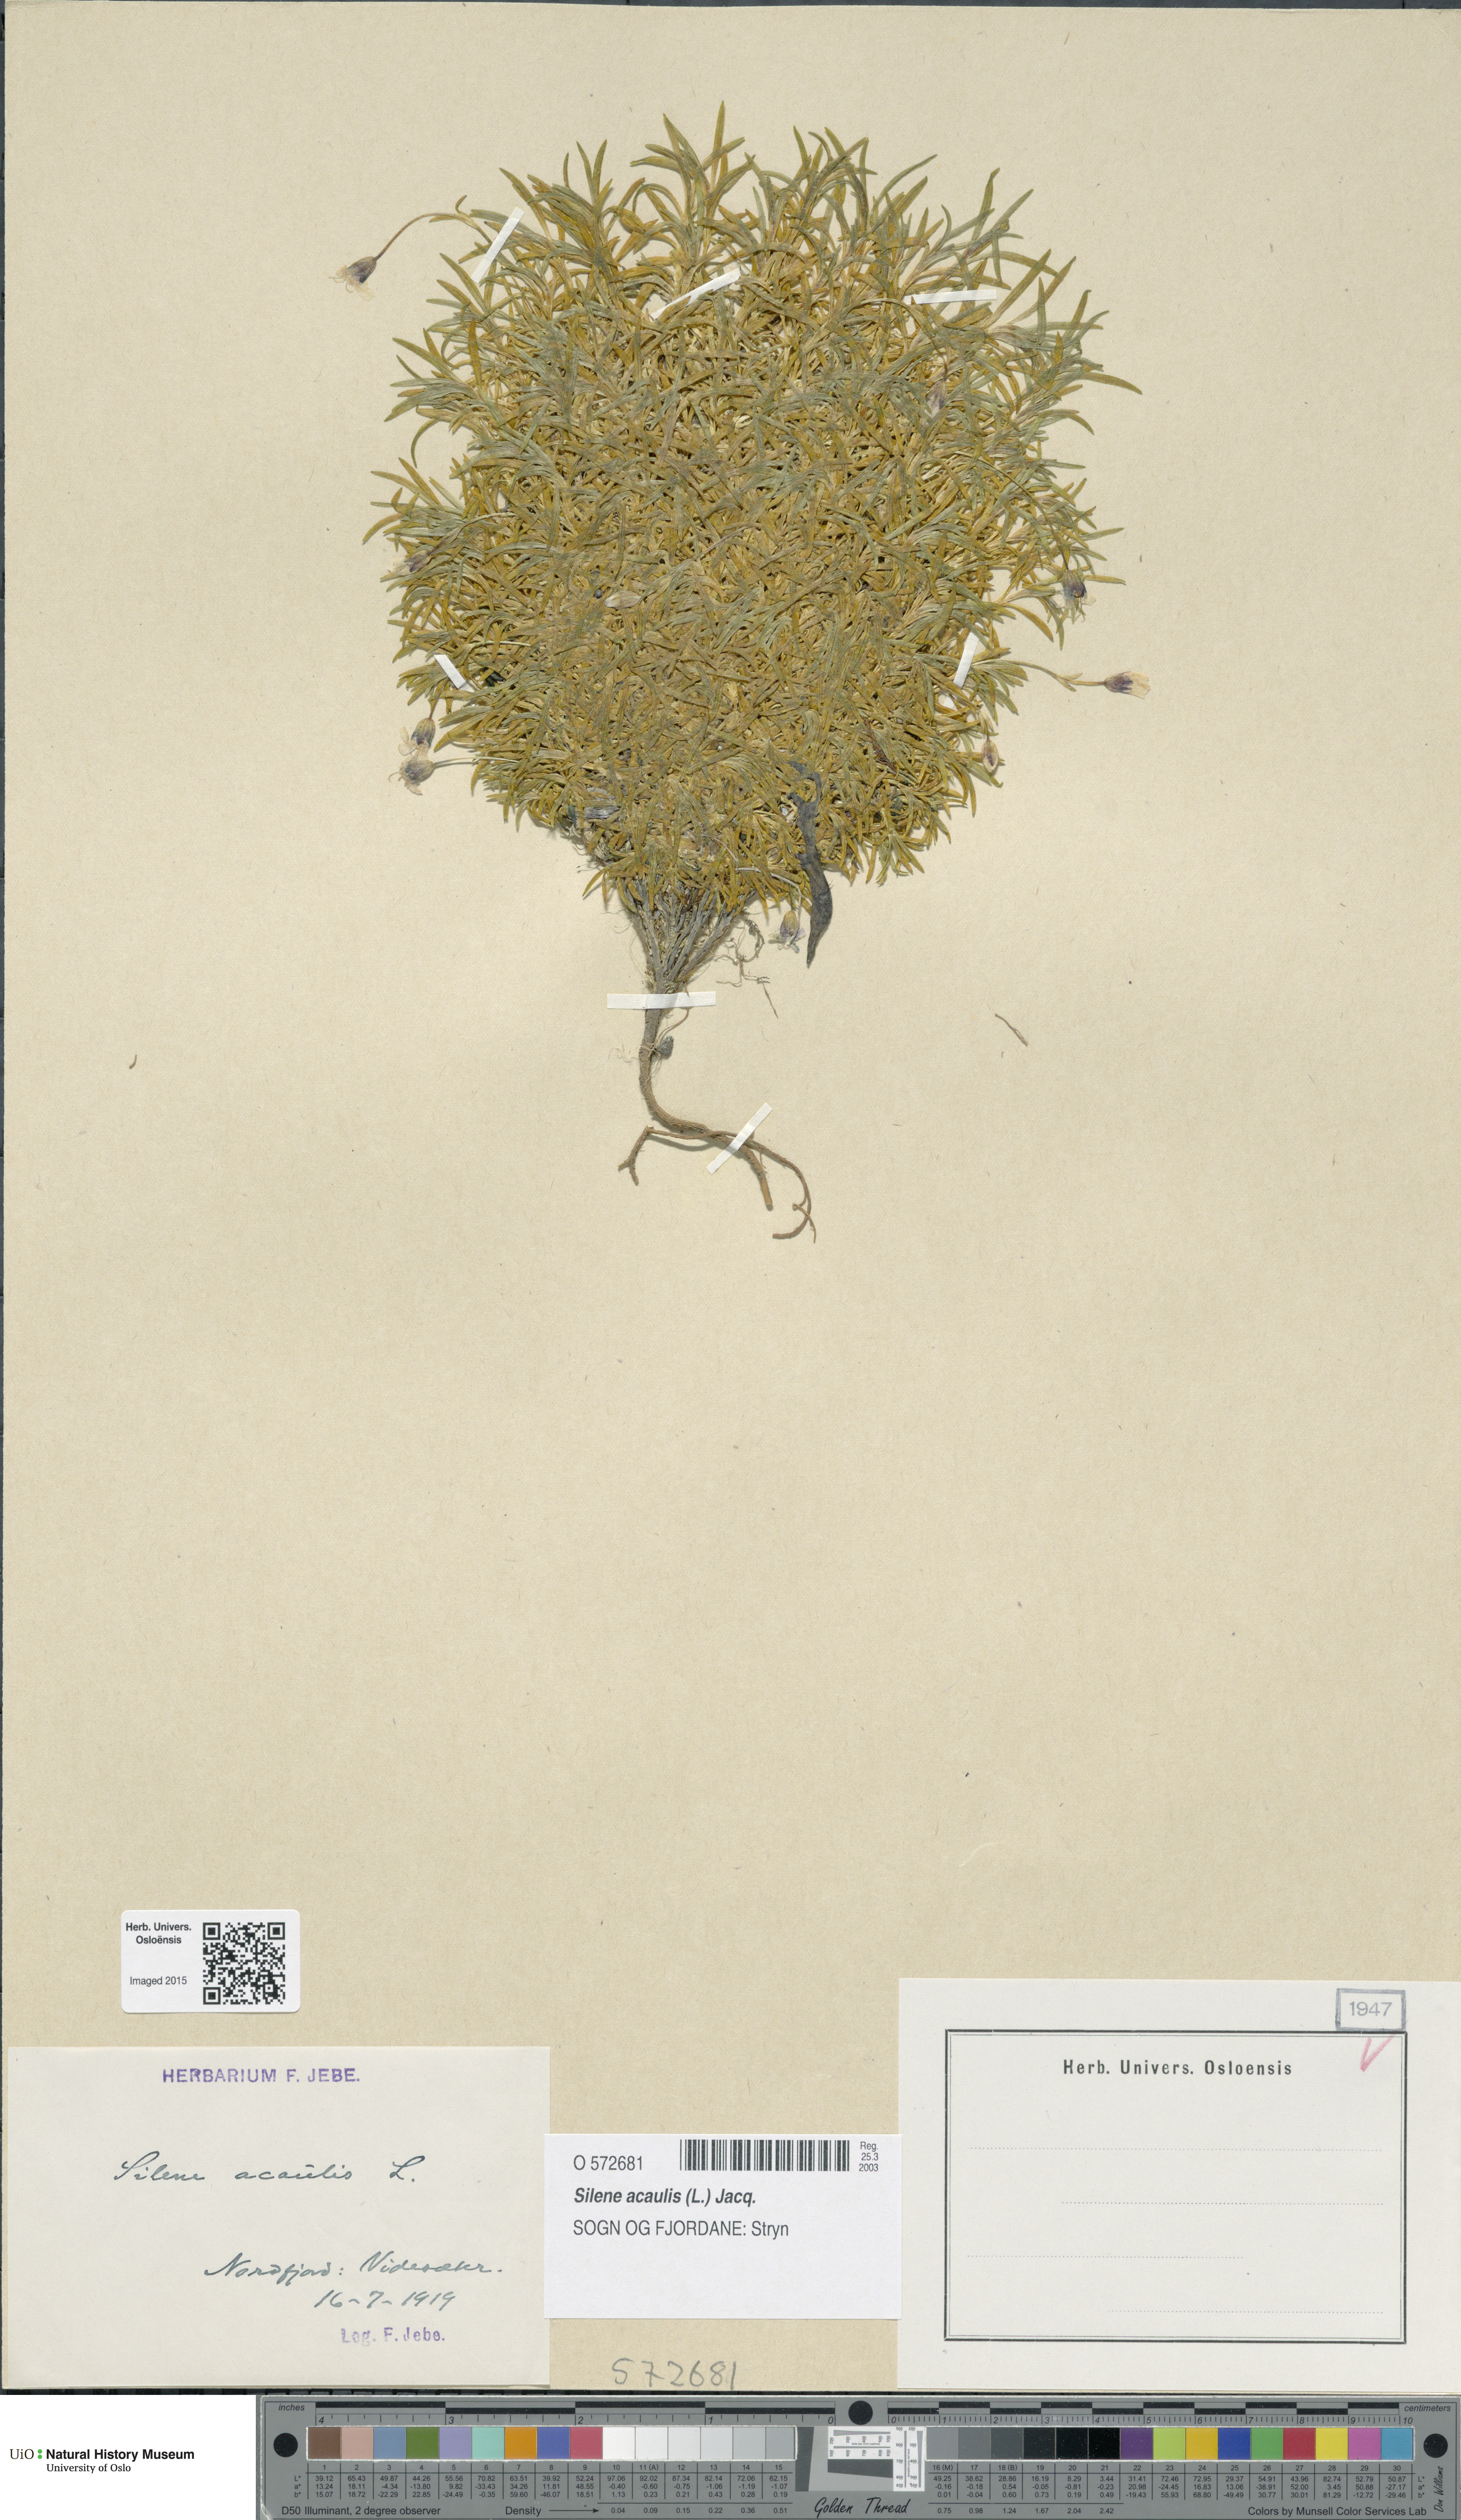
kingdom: Plantae
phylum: Tracheophyta
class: Magnoliopsida
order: Caryophyllales
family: Caryophyllaceae
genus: Silene
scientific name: Silene acaulis
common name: Moss campion
